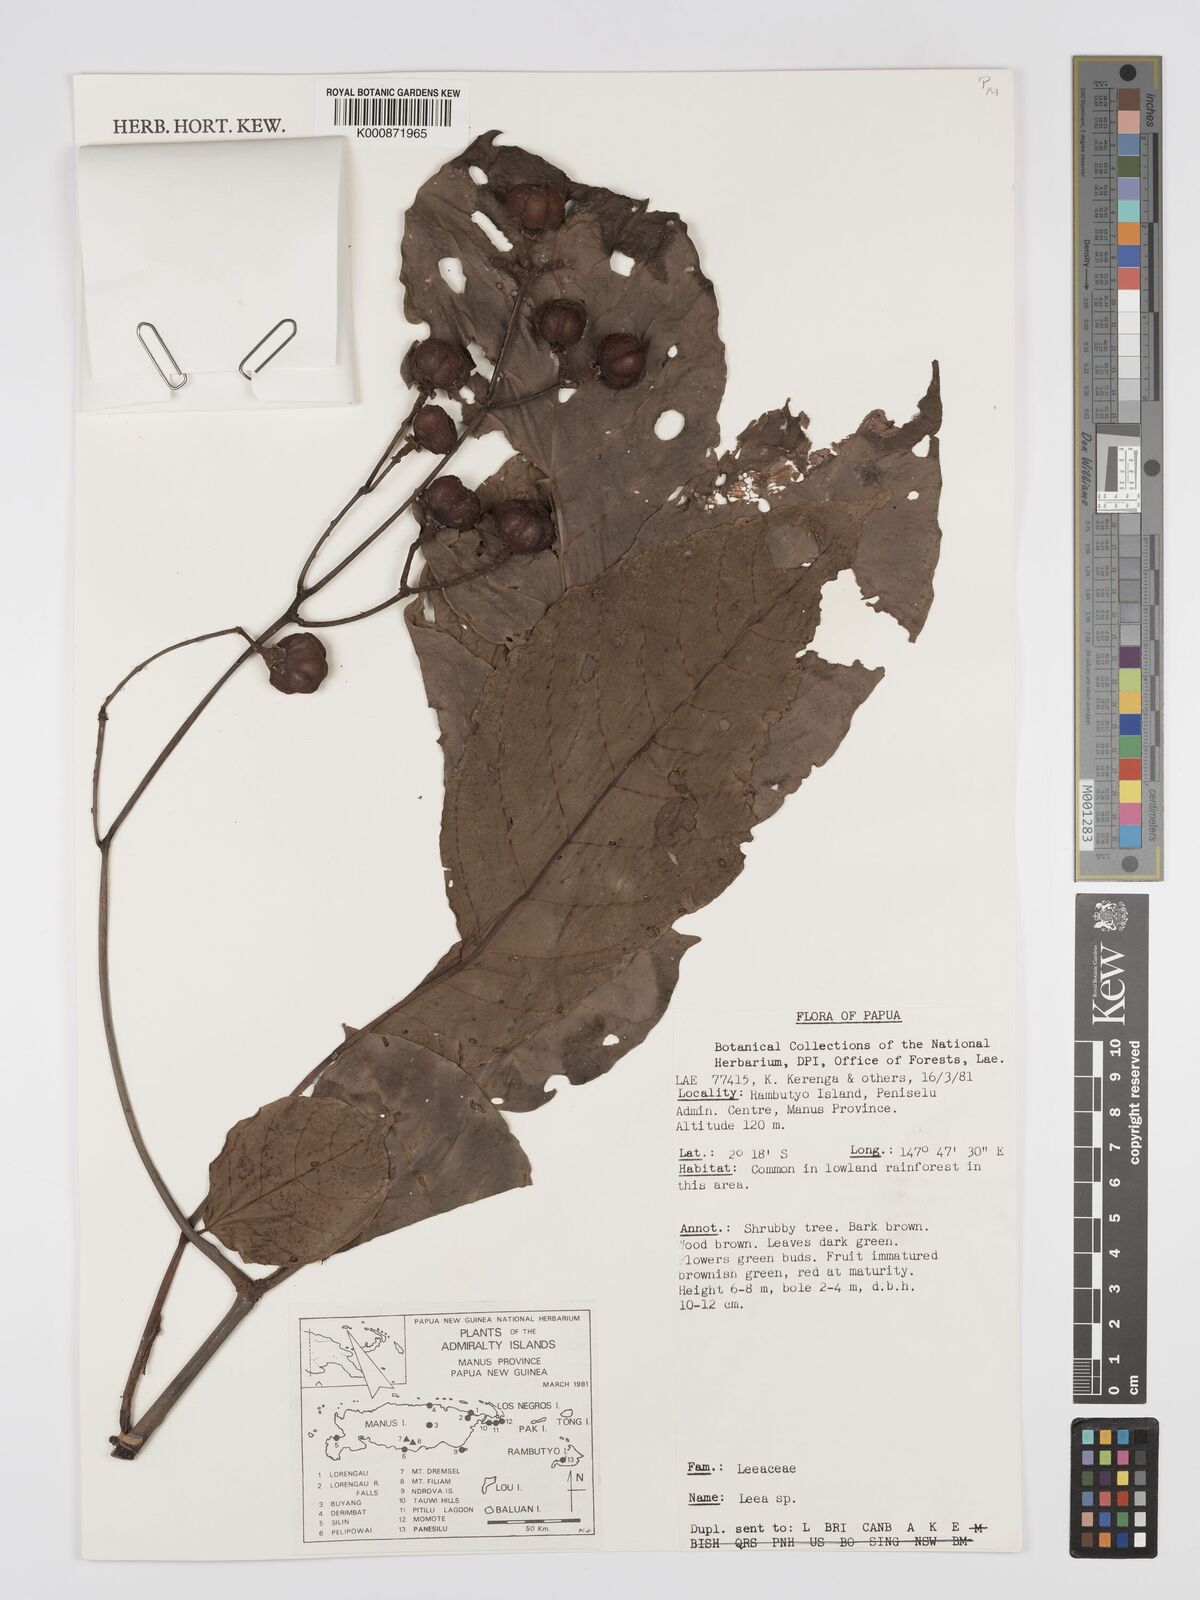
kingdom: Plantae
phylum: Tracheophyta
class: Magnoliopsida
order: Vitales
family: Vitaceae
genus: Leea
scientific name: Leea
